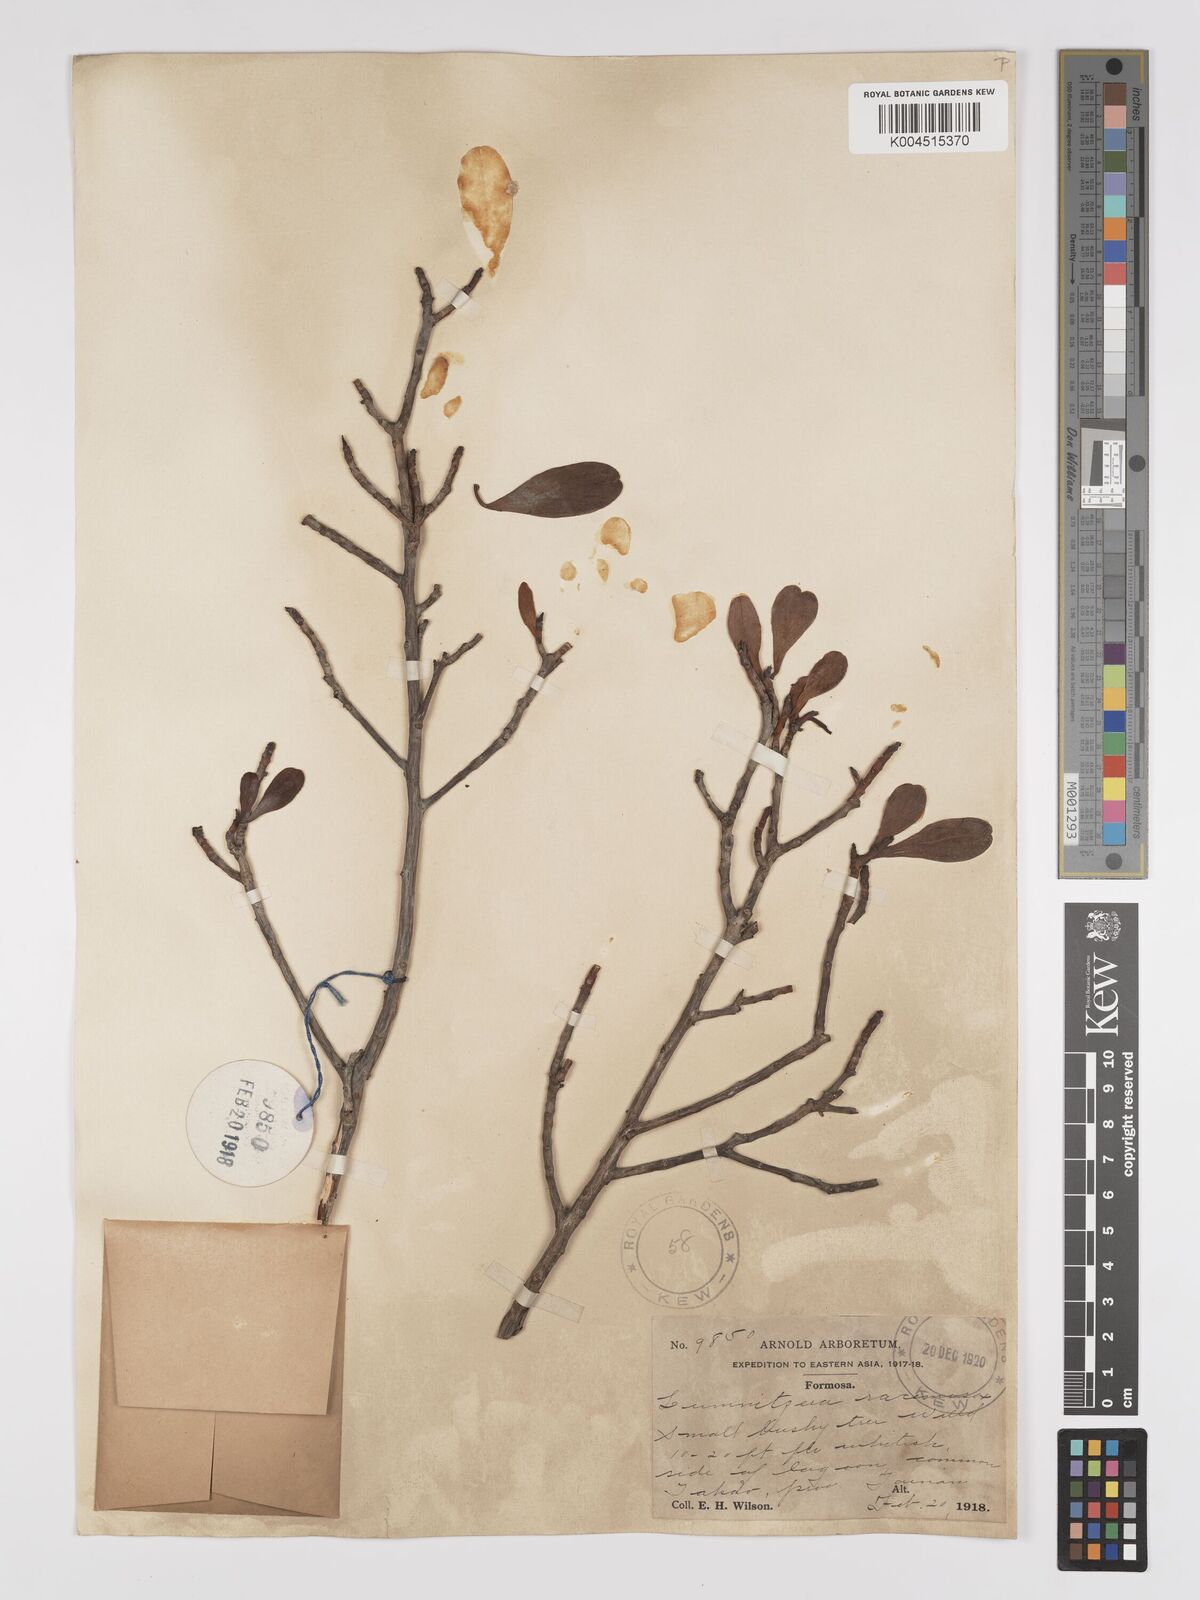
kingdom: Plantae
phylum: Tracheophyta
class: Magnoliopsida
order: Myrtales
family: Combretaceae
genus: Lumnitzera
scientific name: Lumnitzera racemosa
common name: White-flowered black mangrove
